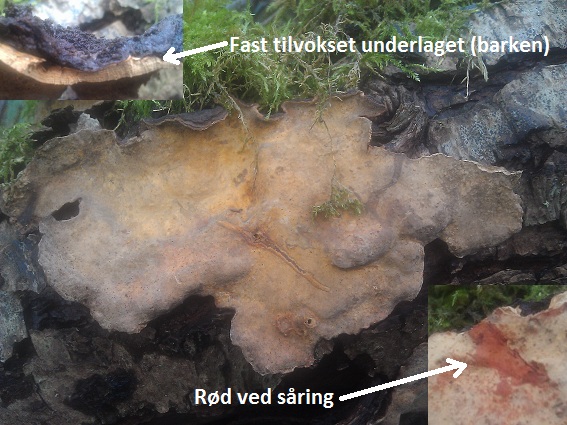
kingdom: Fungi
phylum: Basidiomycota
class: Agaricomycetes
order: Russulales
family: Stereaceae
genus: Stereum
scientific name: Stereum rugosum
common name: rynket lædersvamp
